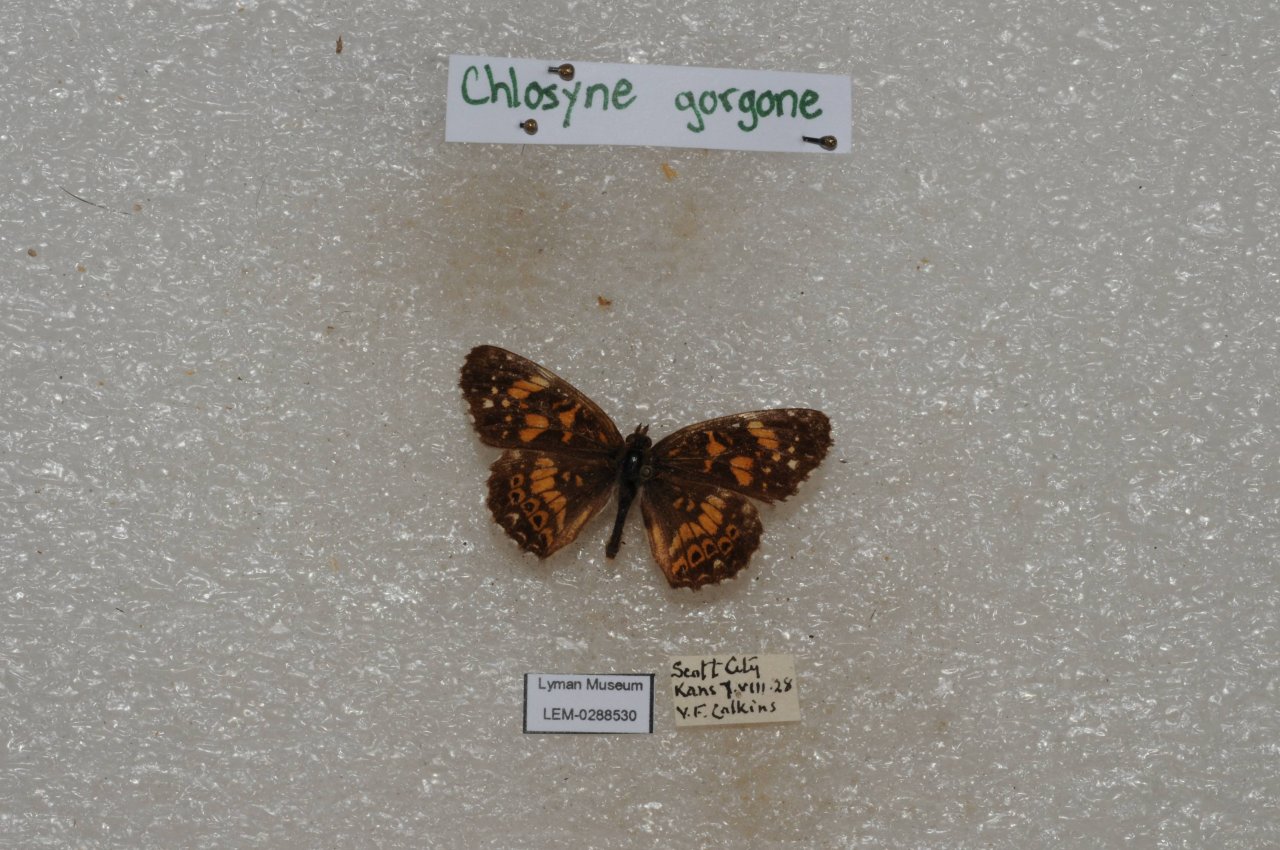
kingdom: Animalia
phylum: Arthropoda
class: Insecta
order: Lepidoptera
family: Nymphalidae
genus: Chlosyne
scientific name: Chlosyne gorgone
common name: Gorgone Checkerspot
